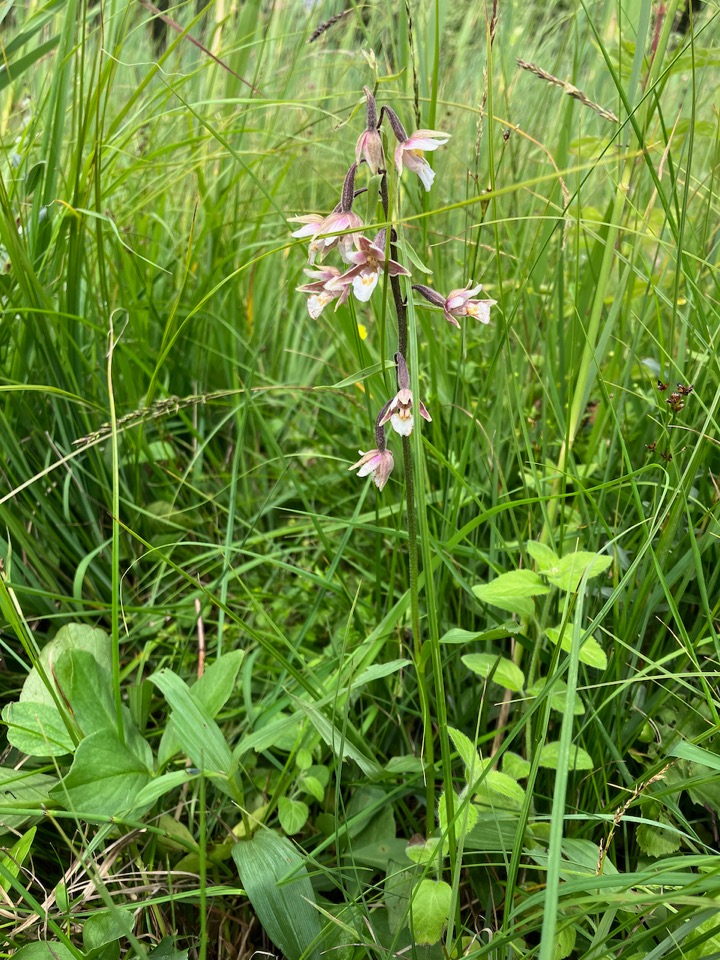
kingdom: Plantae
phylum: Tracheophyta
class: Liliopsida
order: Asparagales
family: Orchidaceae
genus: Epipactis
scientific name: Epipactis palustris
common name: Sump-hullæbe
